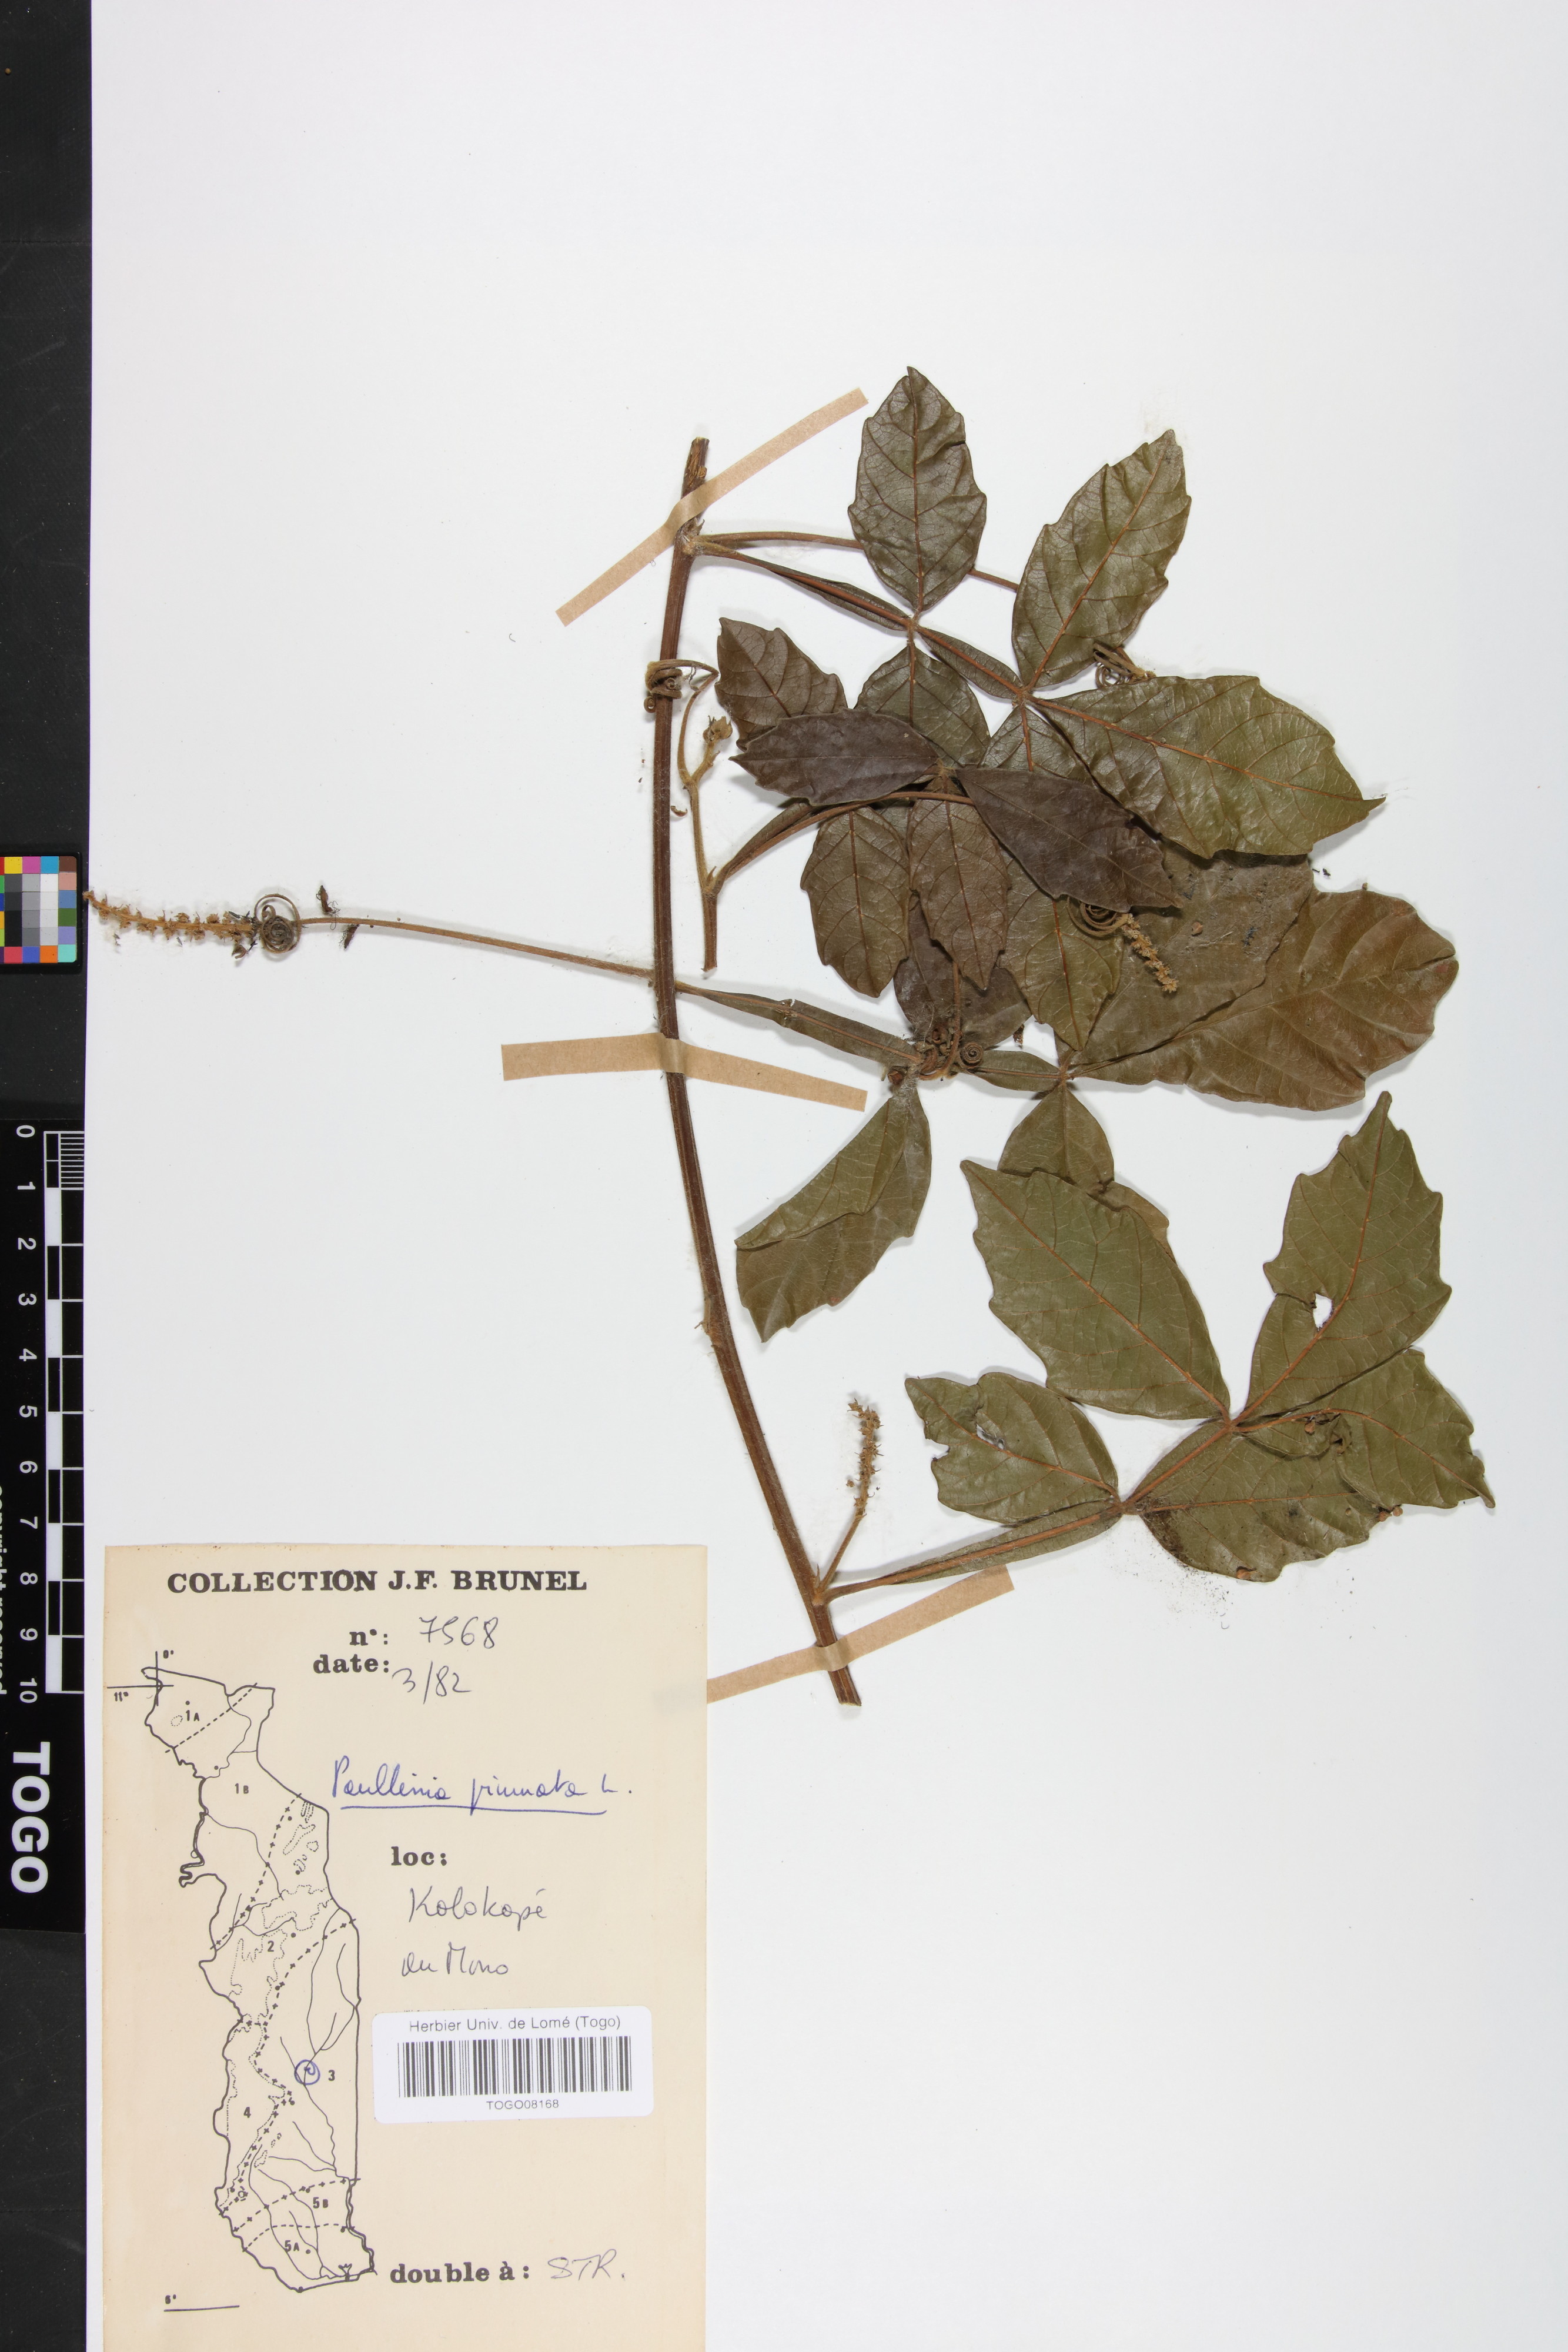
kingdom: Plantae
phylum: Tracheophyta
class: Magnoliopsida
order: Sapindales
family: Sapindaceae
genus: Paullinia
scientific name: Paullinia pinnata
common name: Barbasco
